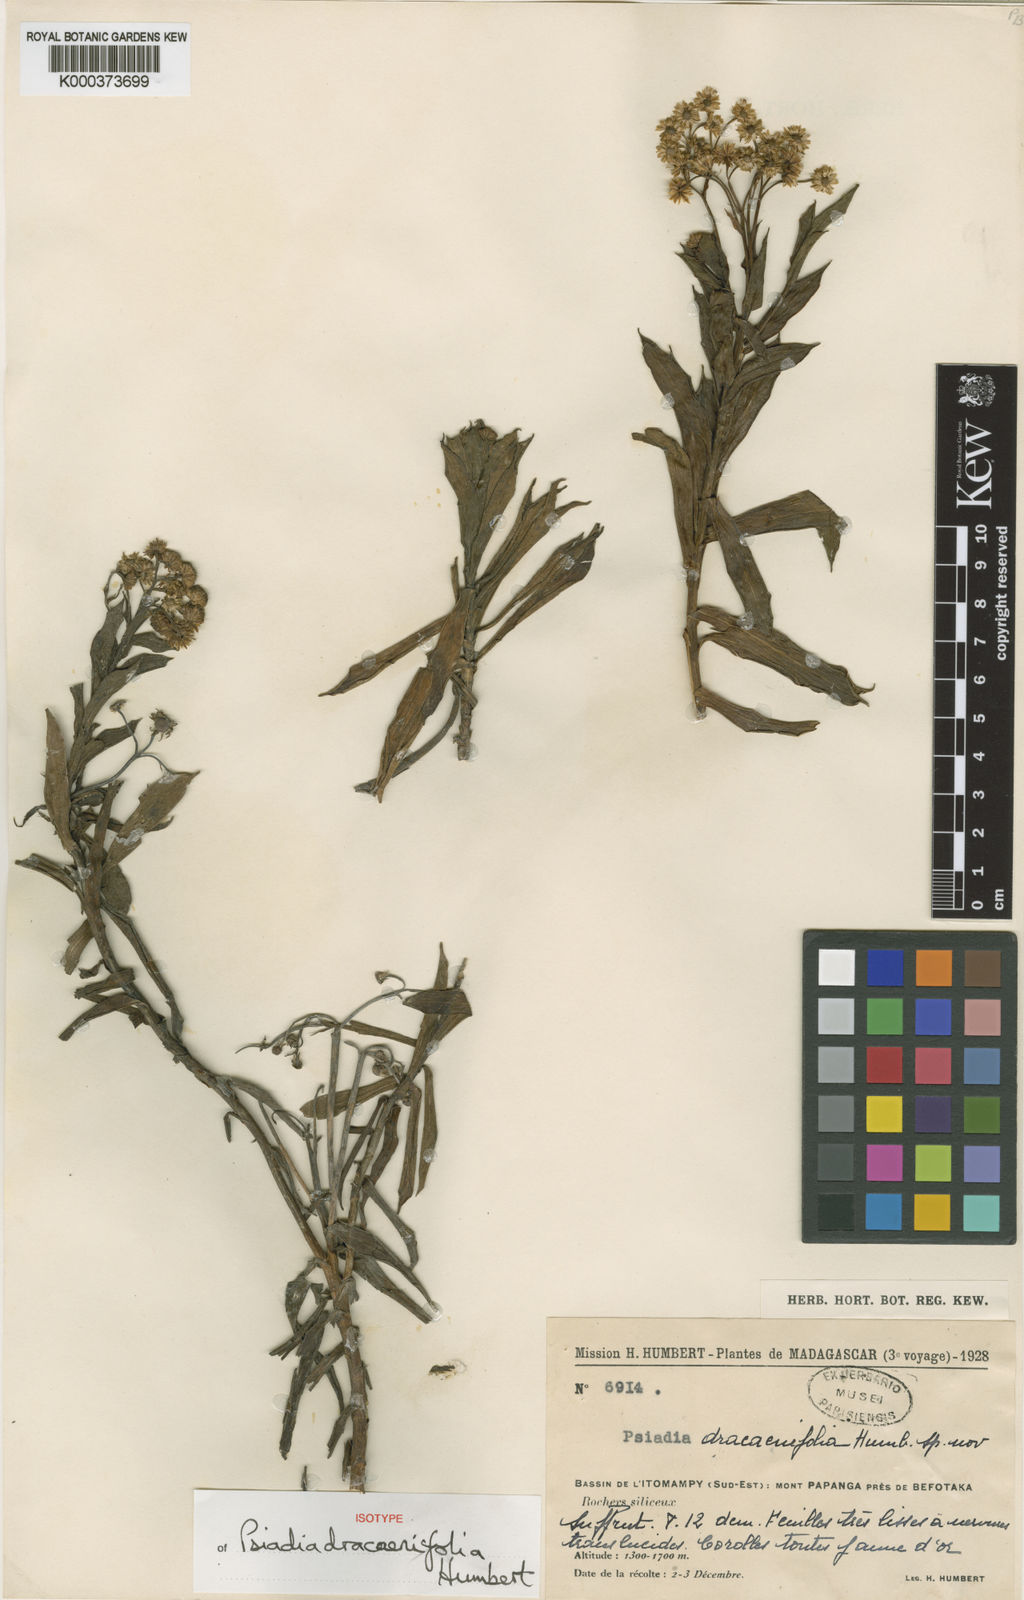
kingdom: Plantae
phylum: Tracheophyta
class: Magnoliopsida
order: Asterales
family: Asteraceae
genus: Psiadia
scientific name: Psiadia dracaenifolia
